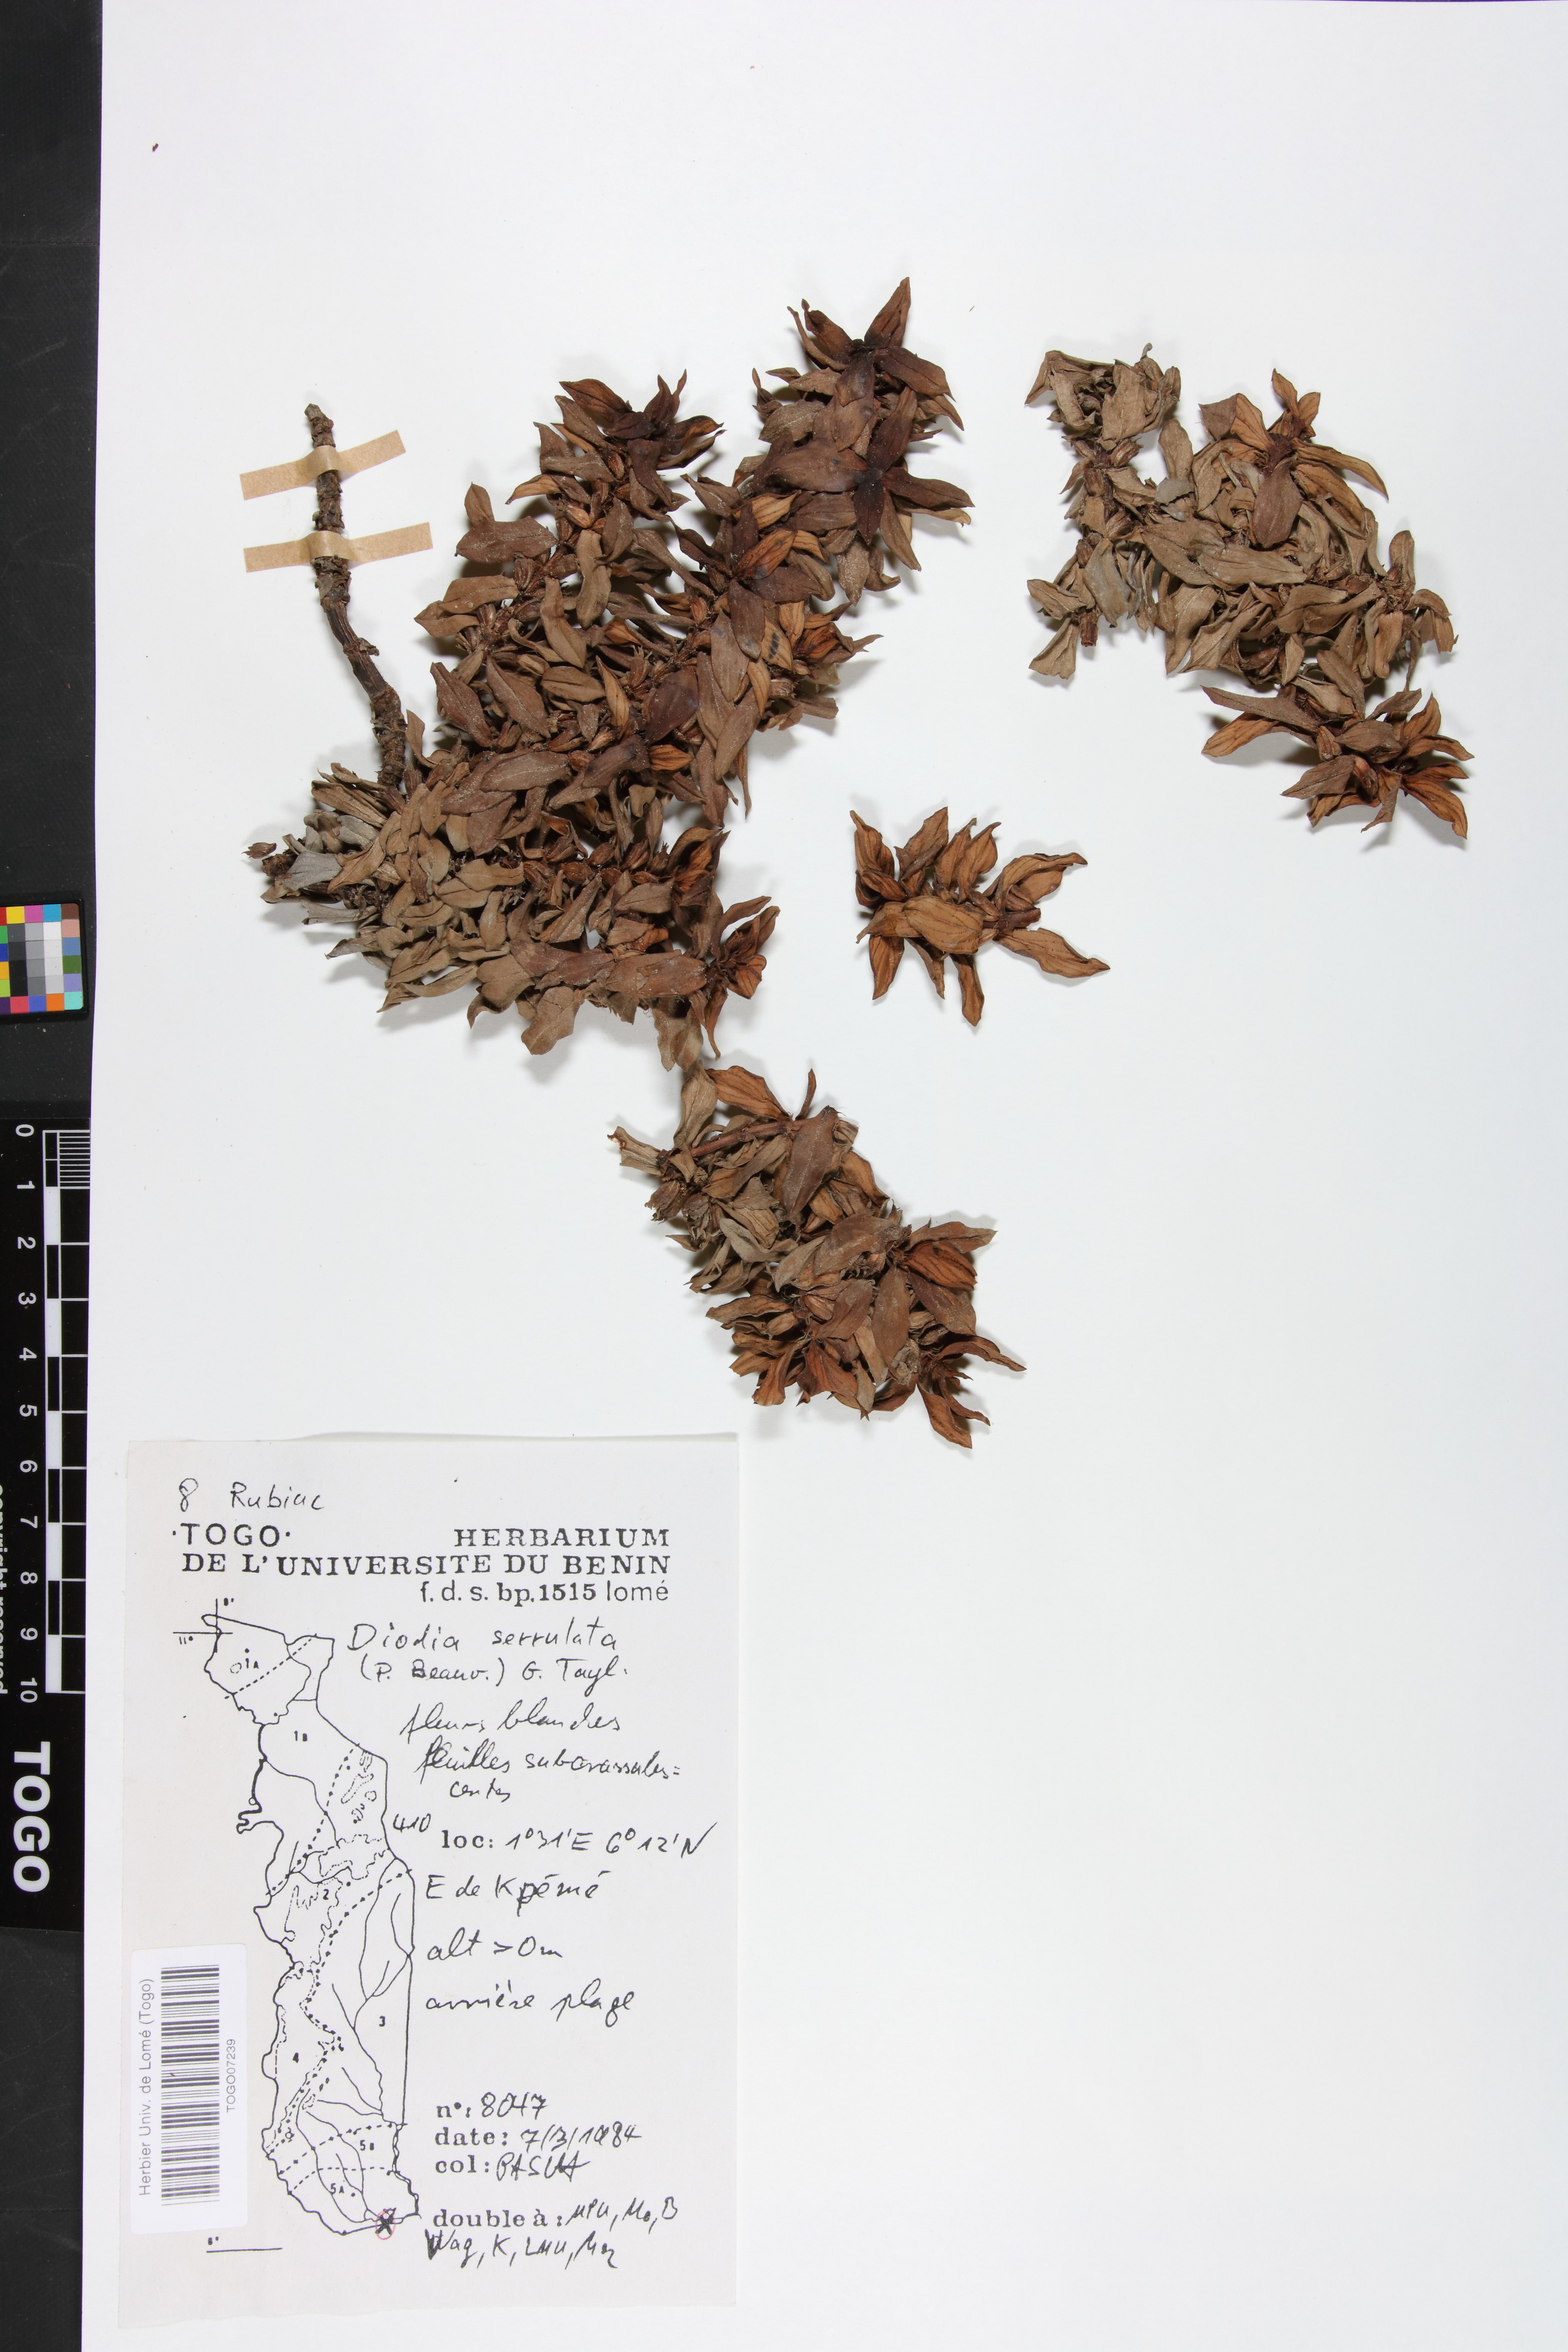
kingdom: Plantae
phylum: Tracheophyta
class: Magnoliopsida
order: Gentianales
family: Rubiaceae
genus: Hexasepalum
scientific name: Hexasepalum serrulatum
